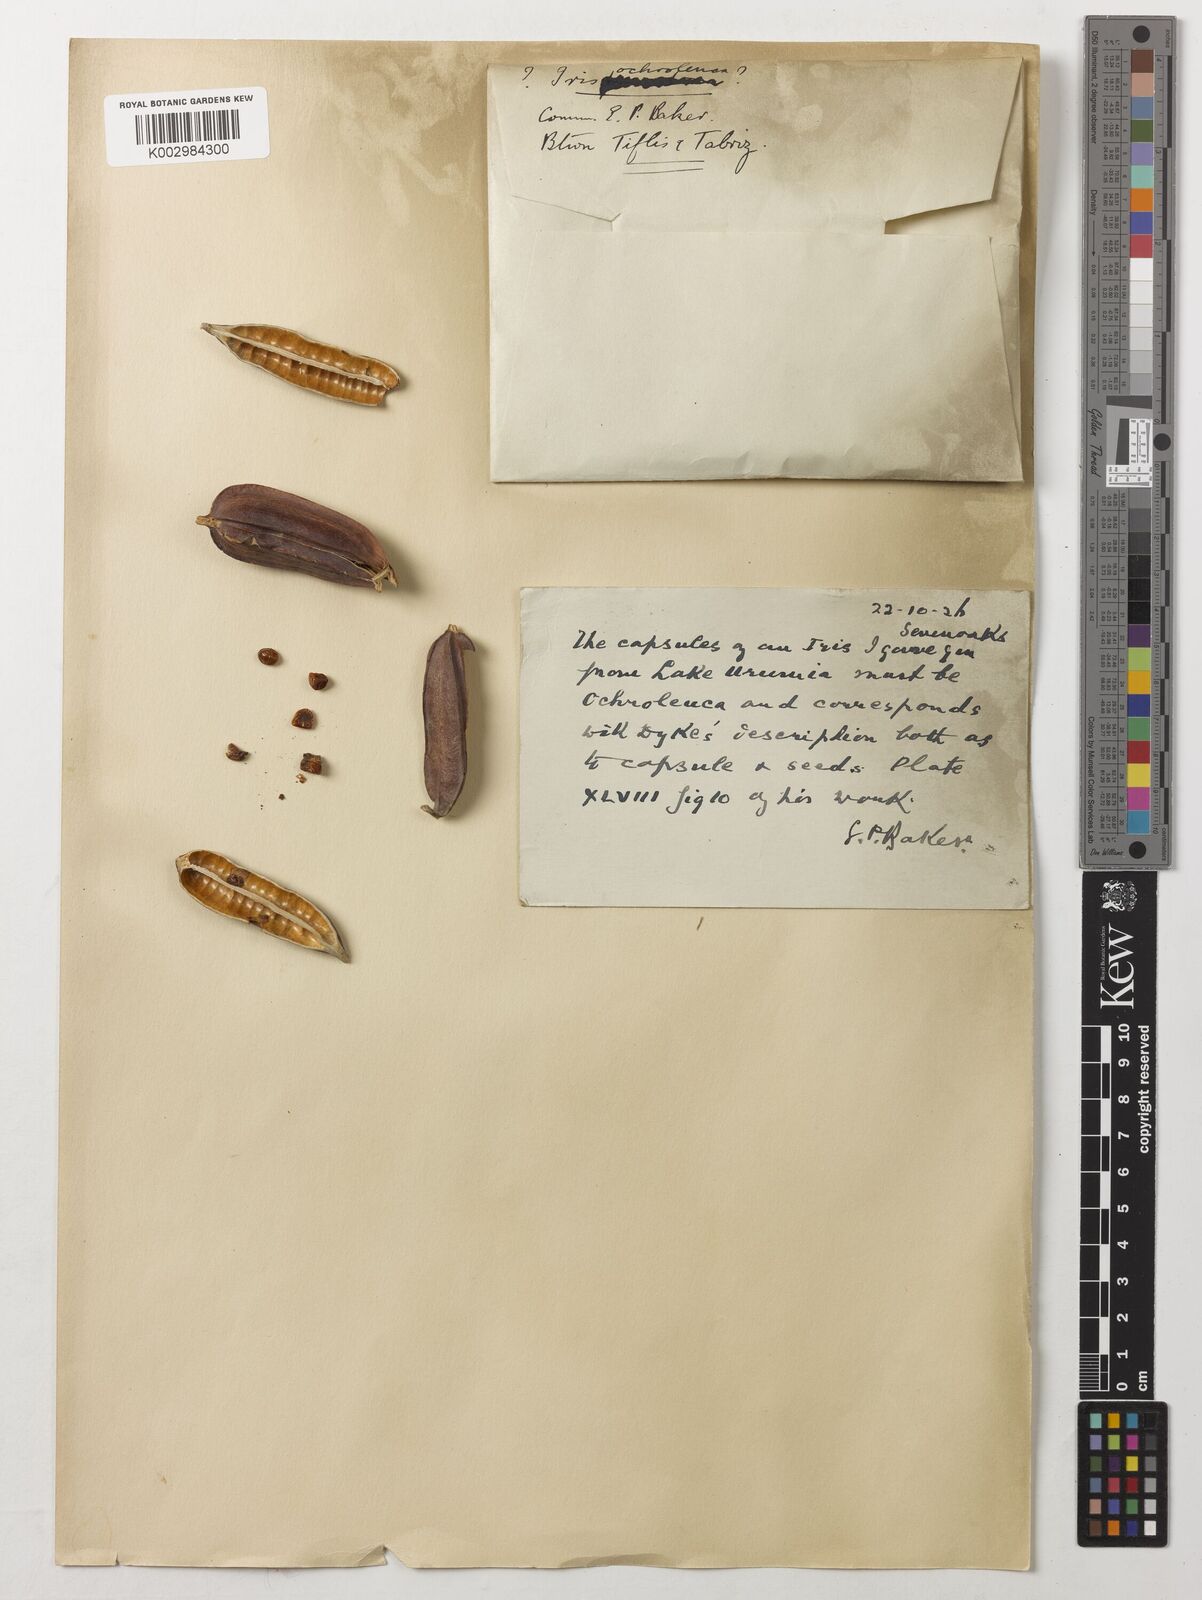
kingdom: Plantae
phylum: Tracheophyta
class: Liliopsida
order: Asparagales
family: Iridaceae
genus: Iris
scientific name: Iris spuria
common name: Blue iris
